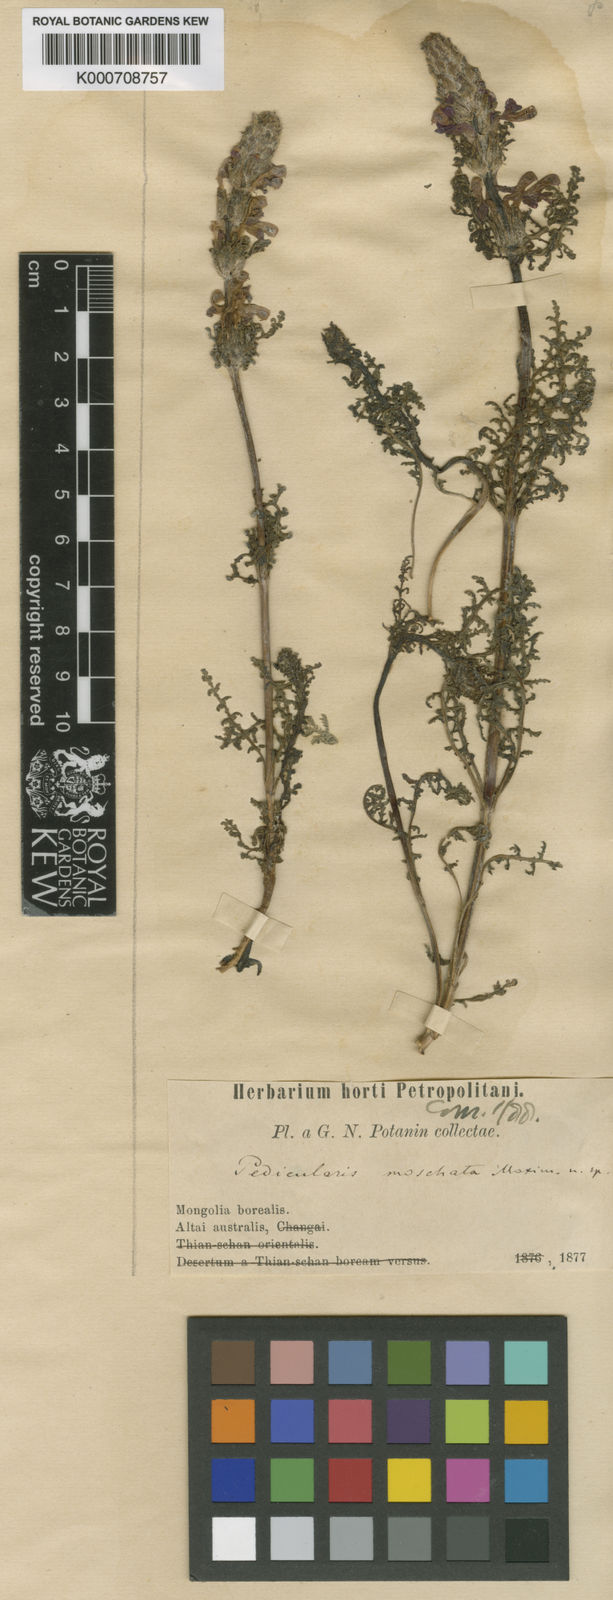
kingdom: Plantae
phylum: Tracheophyta
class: Magnoliopsida
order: Lamiales
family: Orobanchaceae
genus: Pedicularis
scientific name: Pedicularis moschata
